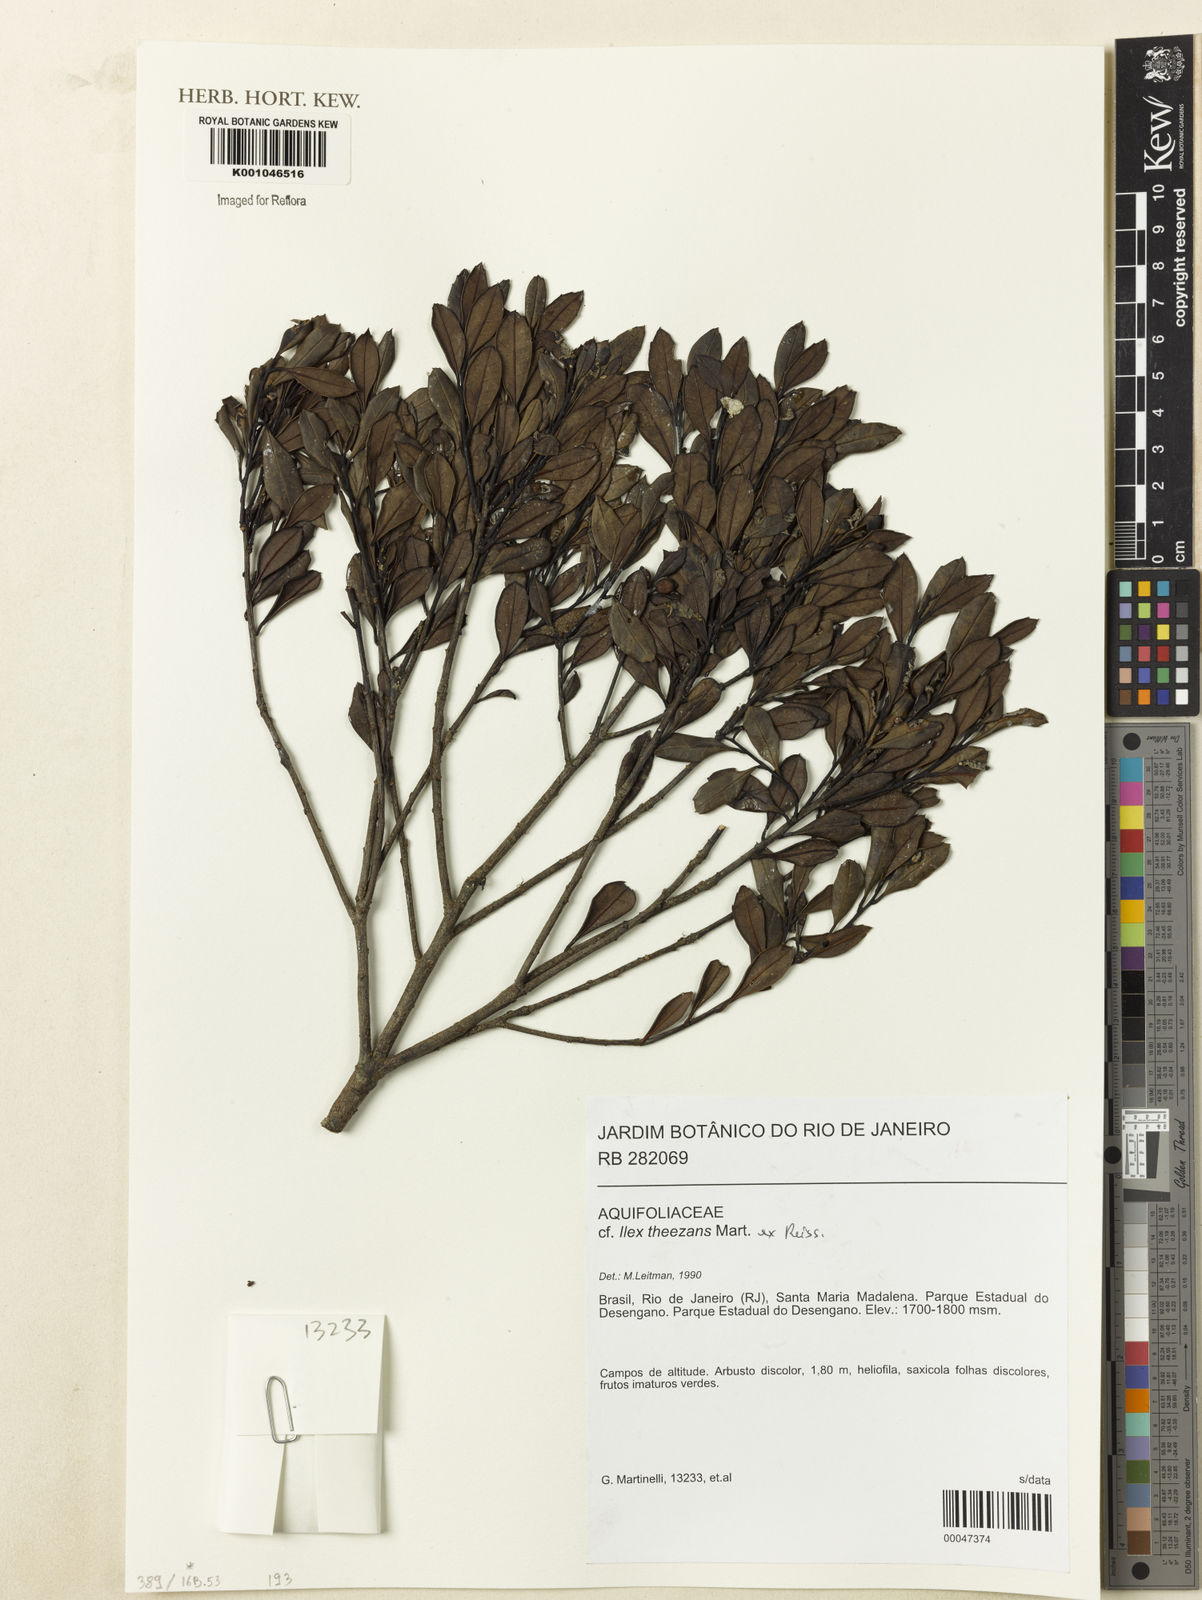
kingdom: Plantae
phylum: Tracheophyta
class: Magnoliopsida
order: Aquifoliales
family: Aquifoliaceae
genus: Ilex
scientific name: Ilex paraguariensis
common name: Paraguay tea
